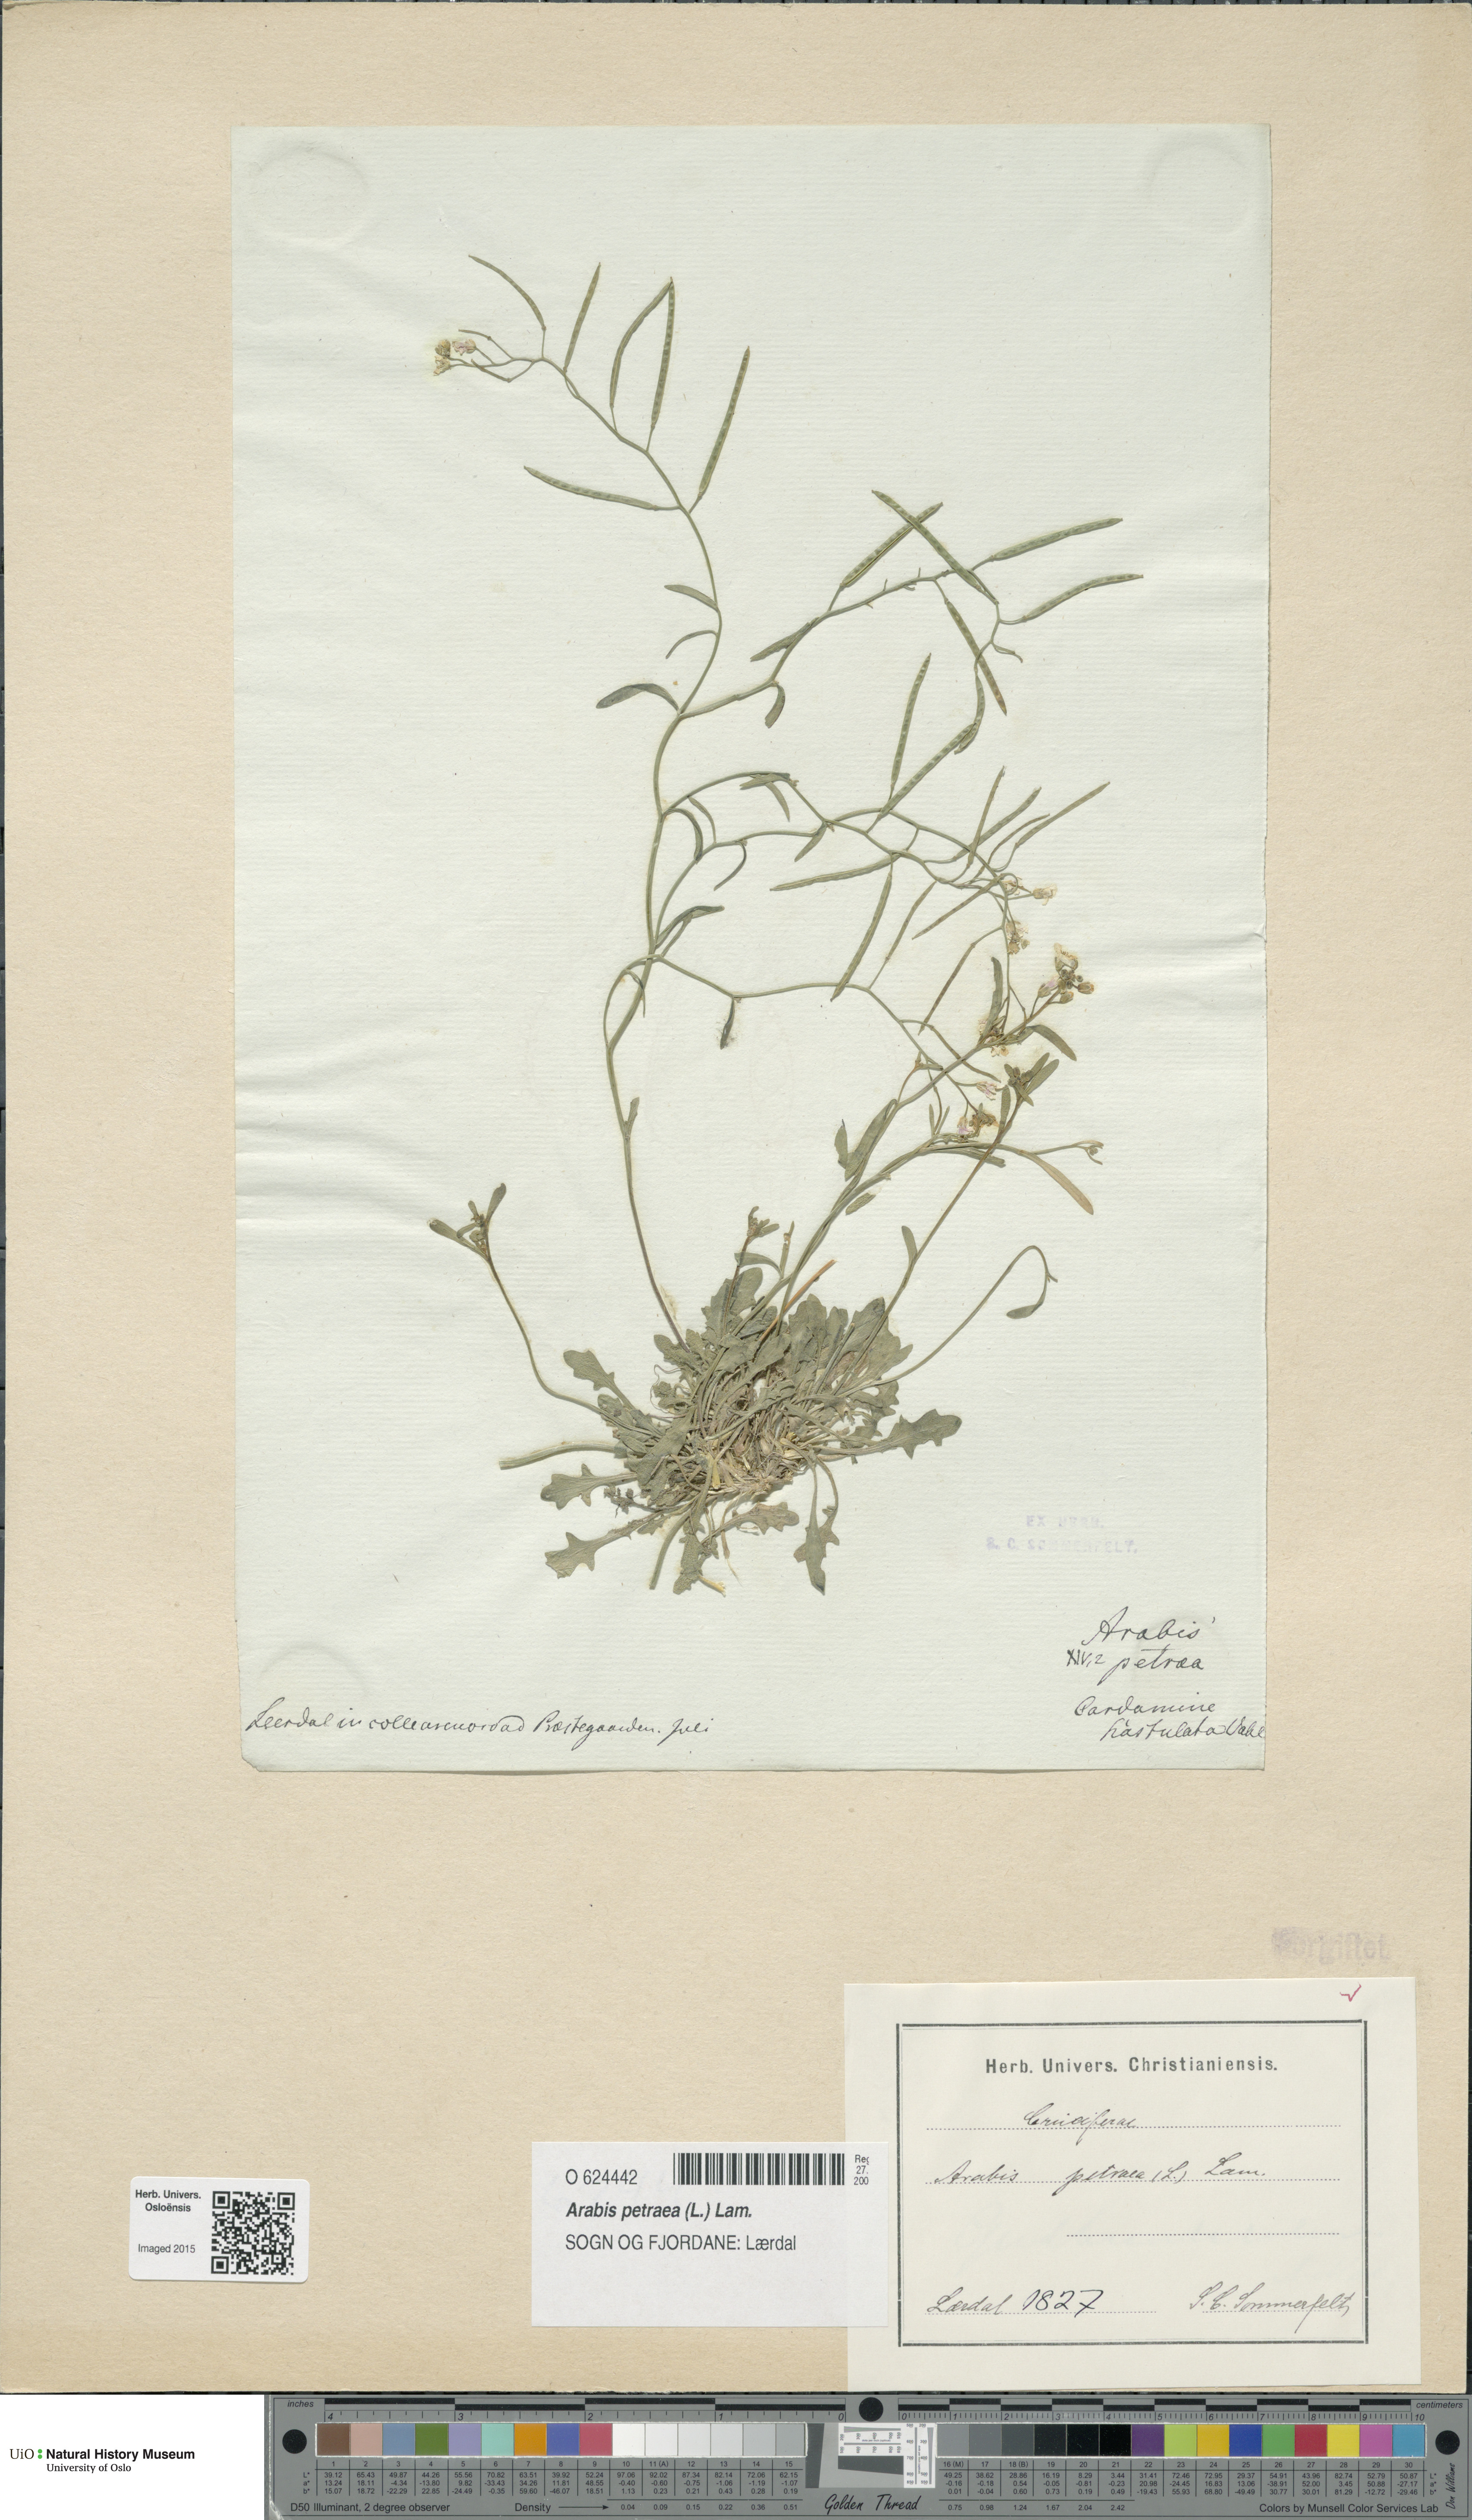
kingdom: Plantae
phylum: Tracheophyta
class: Magnoliopsida
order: Brassicales
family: Brassicaceae
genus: Arabidopsis
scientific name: Arabidopsis petraea
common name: Northern rock-cress
